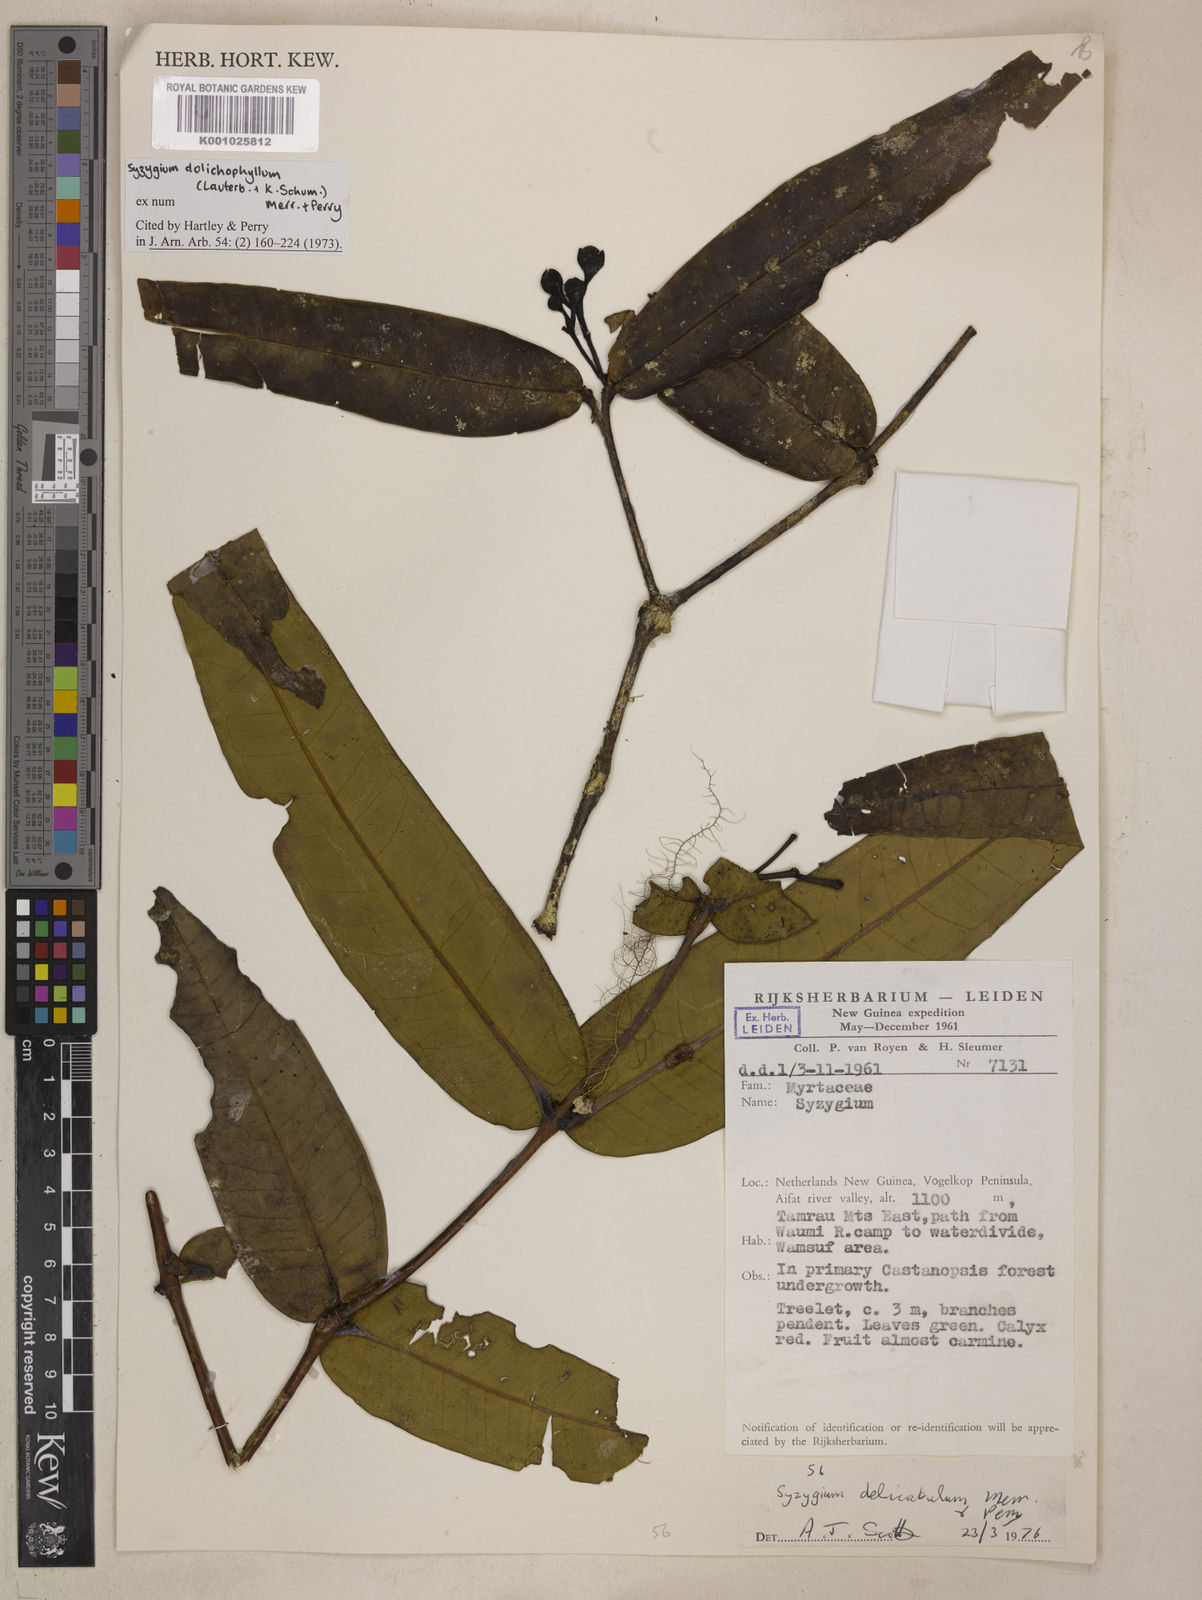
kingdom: Plantae
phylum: Tracheophyta
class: Magnoliopsida
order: Myrtales
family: Myrtaceae
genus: Syzygium
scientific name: Syzygium delicatulum
